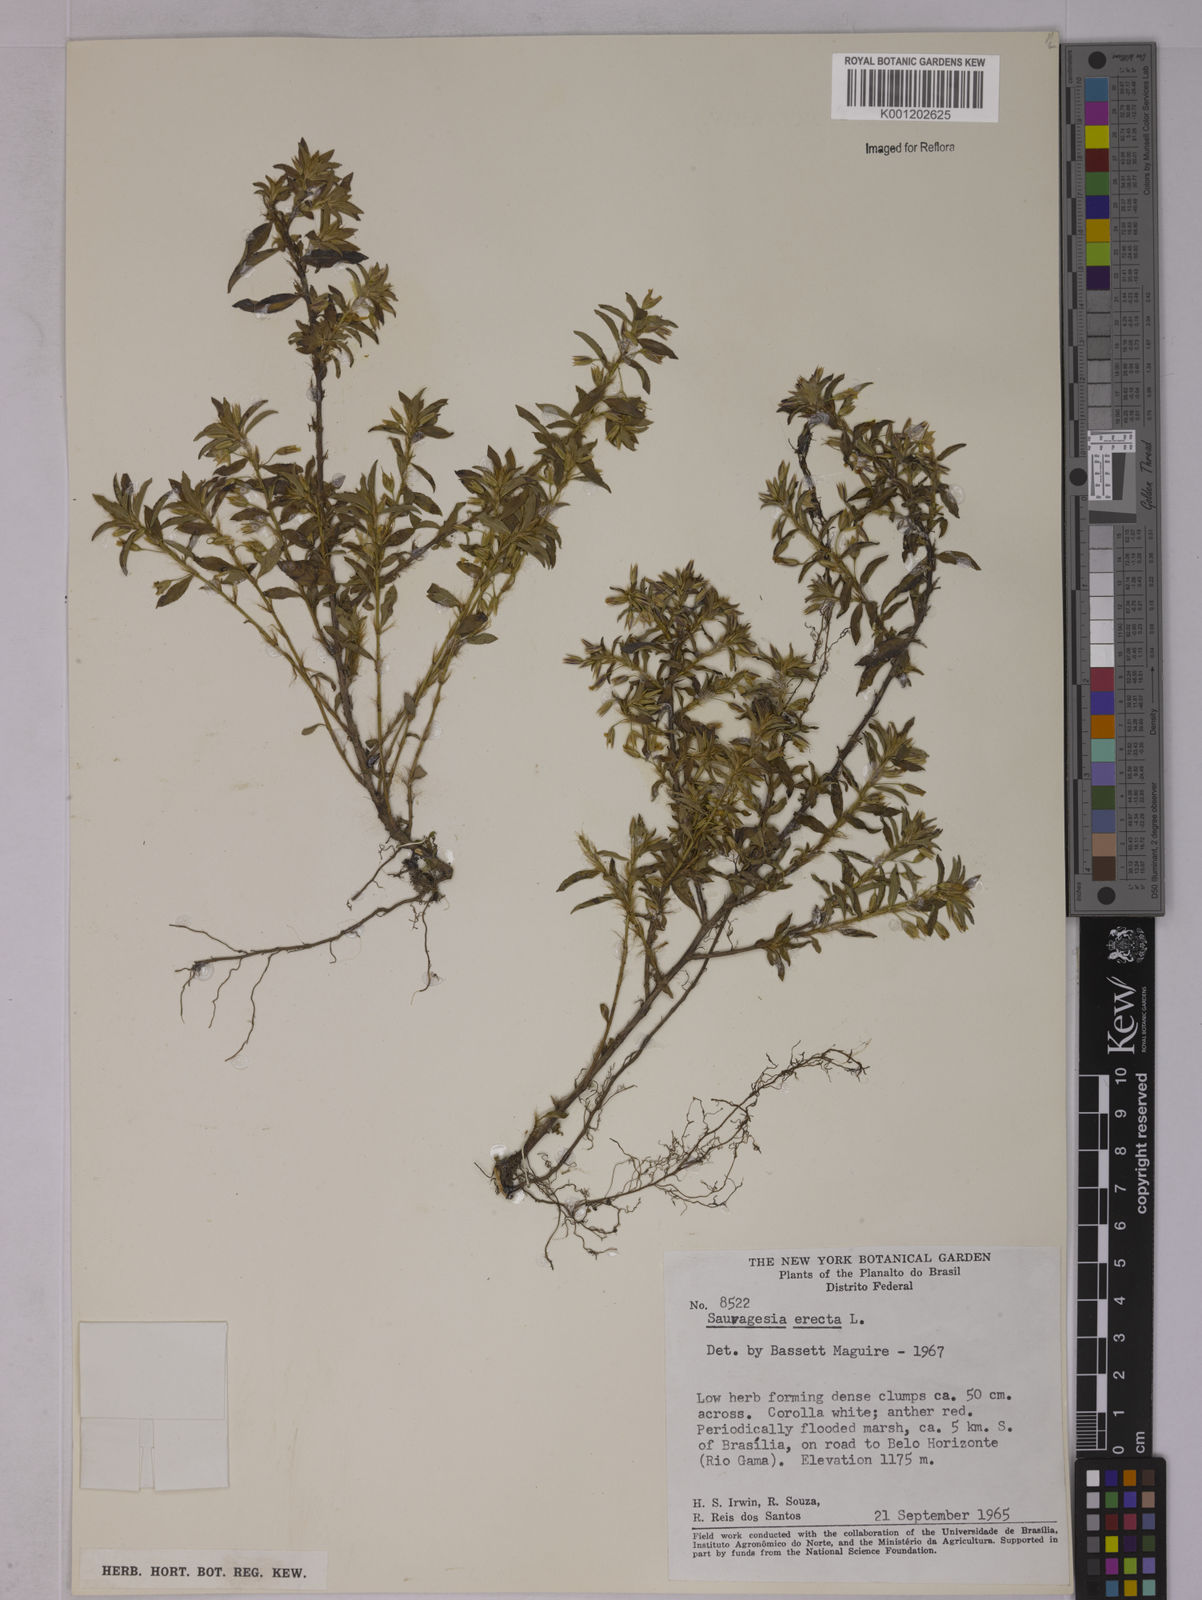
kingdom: Plantae
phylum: Tracheophyta
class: Magnoliopsida
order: Malpighiales
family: Ochnaceae
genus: Sauvagesia
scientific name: Sauvagesia erecta
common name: Creole tea
